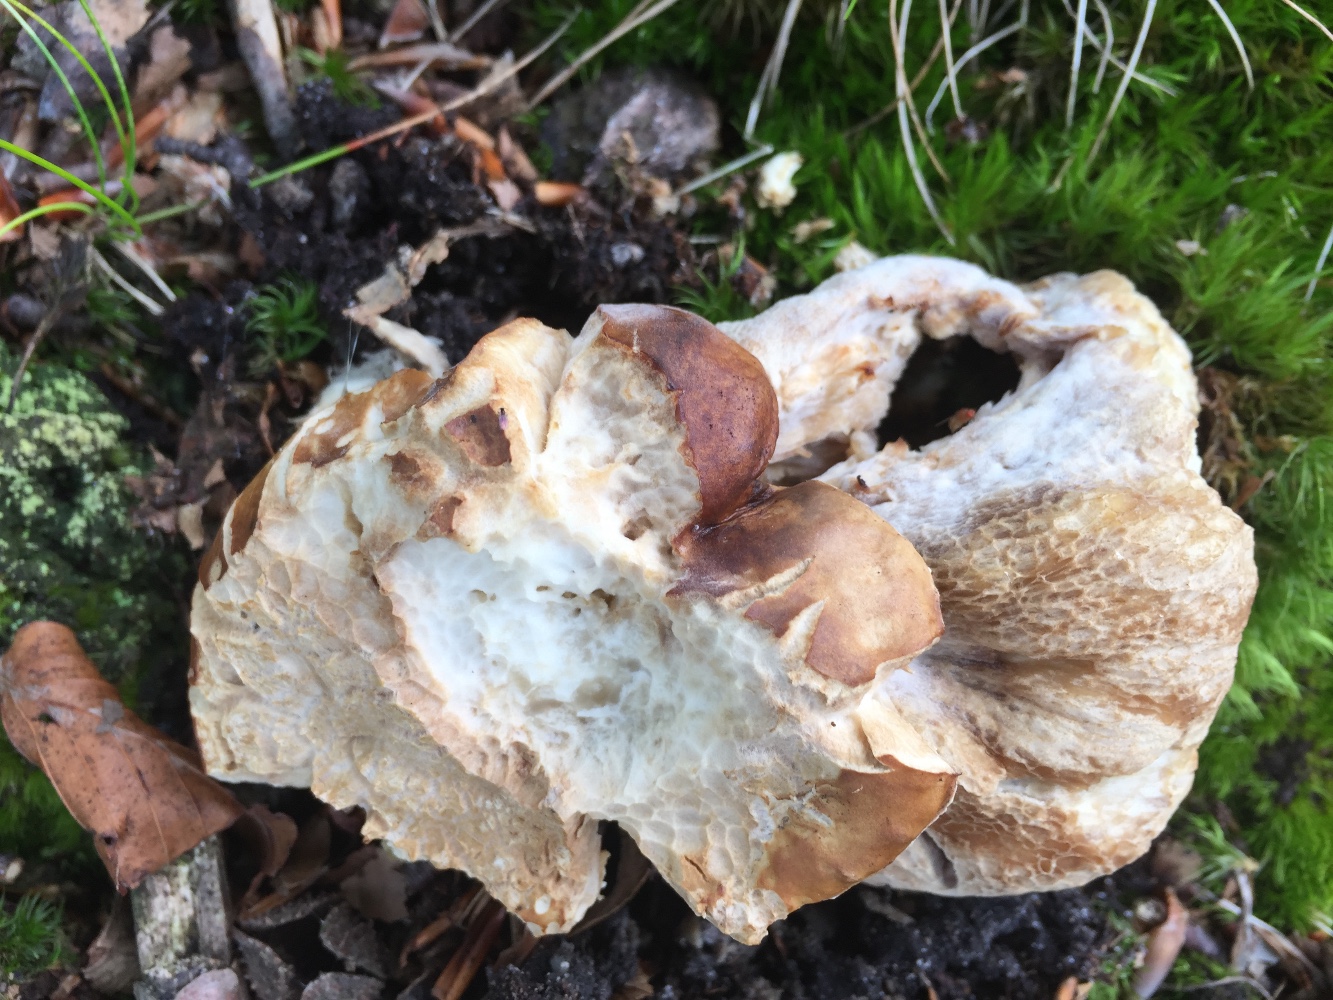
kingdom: Fungi
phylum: Basidiomycota
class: Agaricomycetes
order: Boletales
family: Boletaceae
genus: Boletus
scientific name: Boletus edulis
